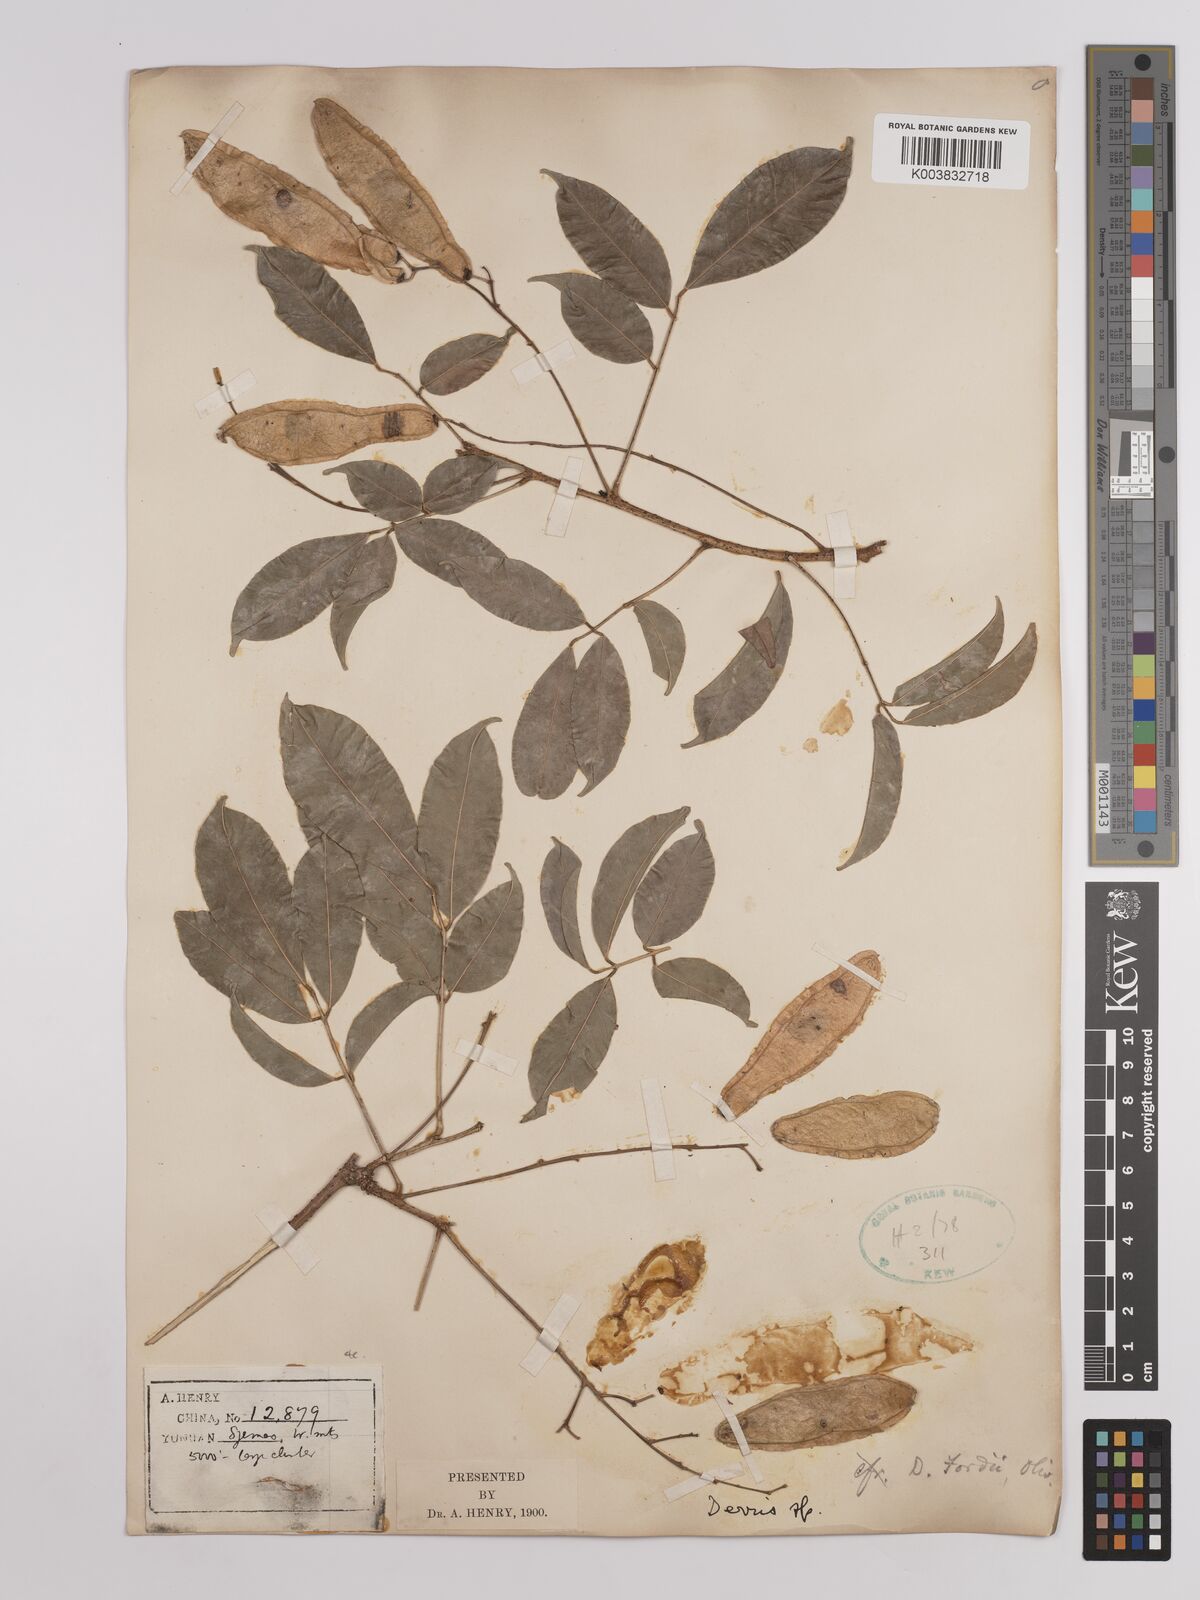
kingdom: Plantae
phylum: Tracheophyta
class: Magnoliopsida
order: Fabales
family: Fabaceae
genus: Derris
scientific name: Derris fordii
